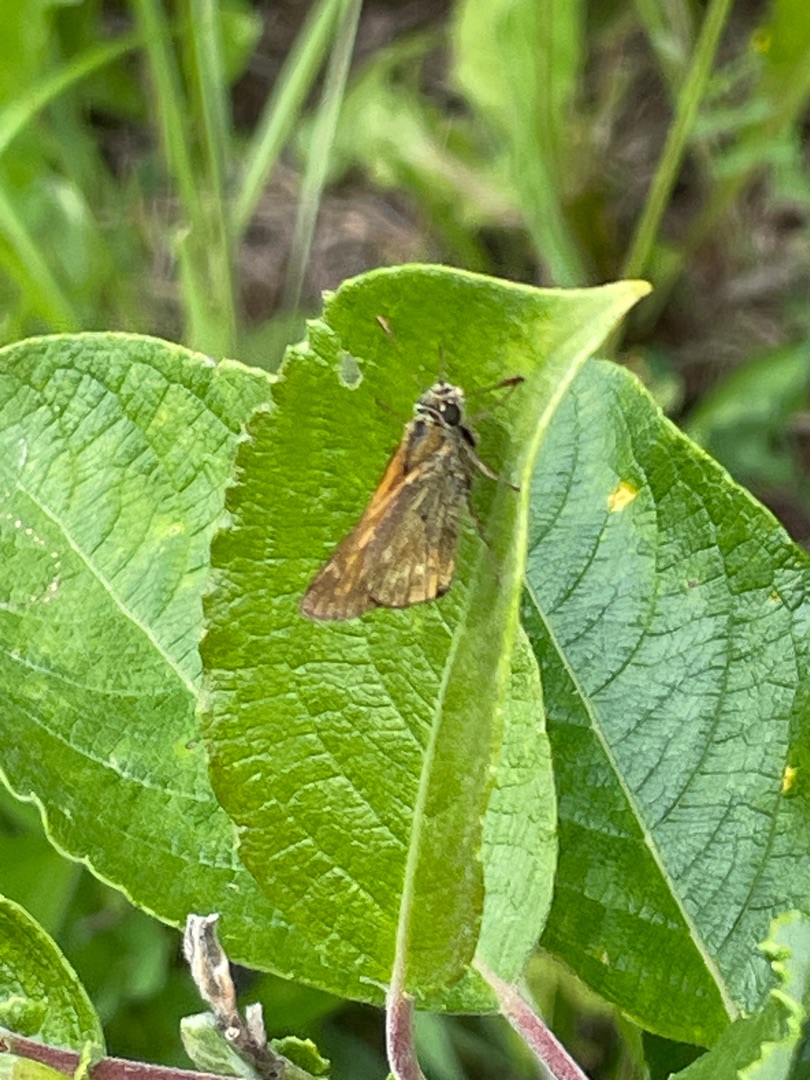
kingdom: Animalia
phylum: Arthropoda
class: Insecta
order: Lepidoptera
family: Hesperiidae
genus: Ochlodes
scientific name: Ochlodes venata
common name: Stor bredpande
